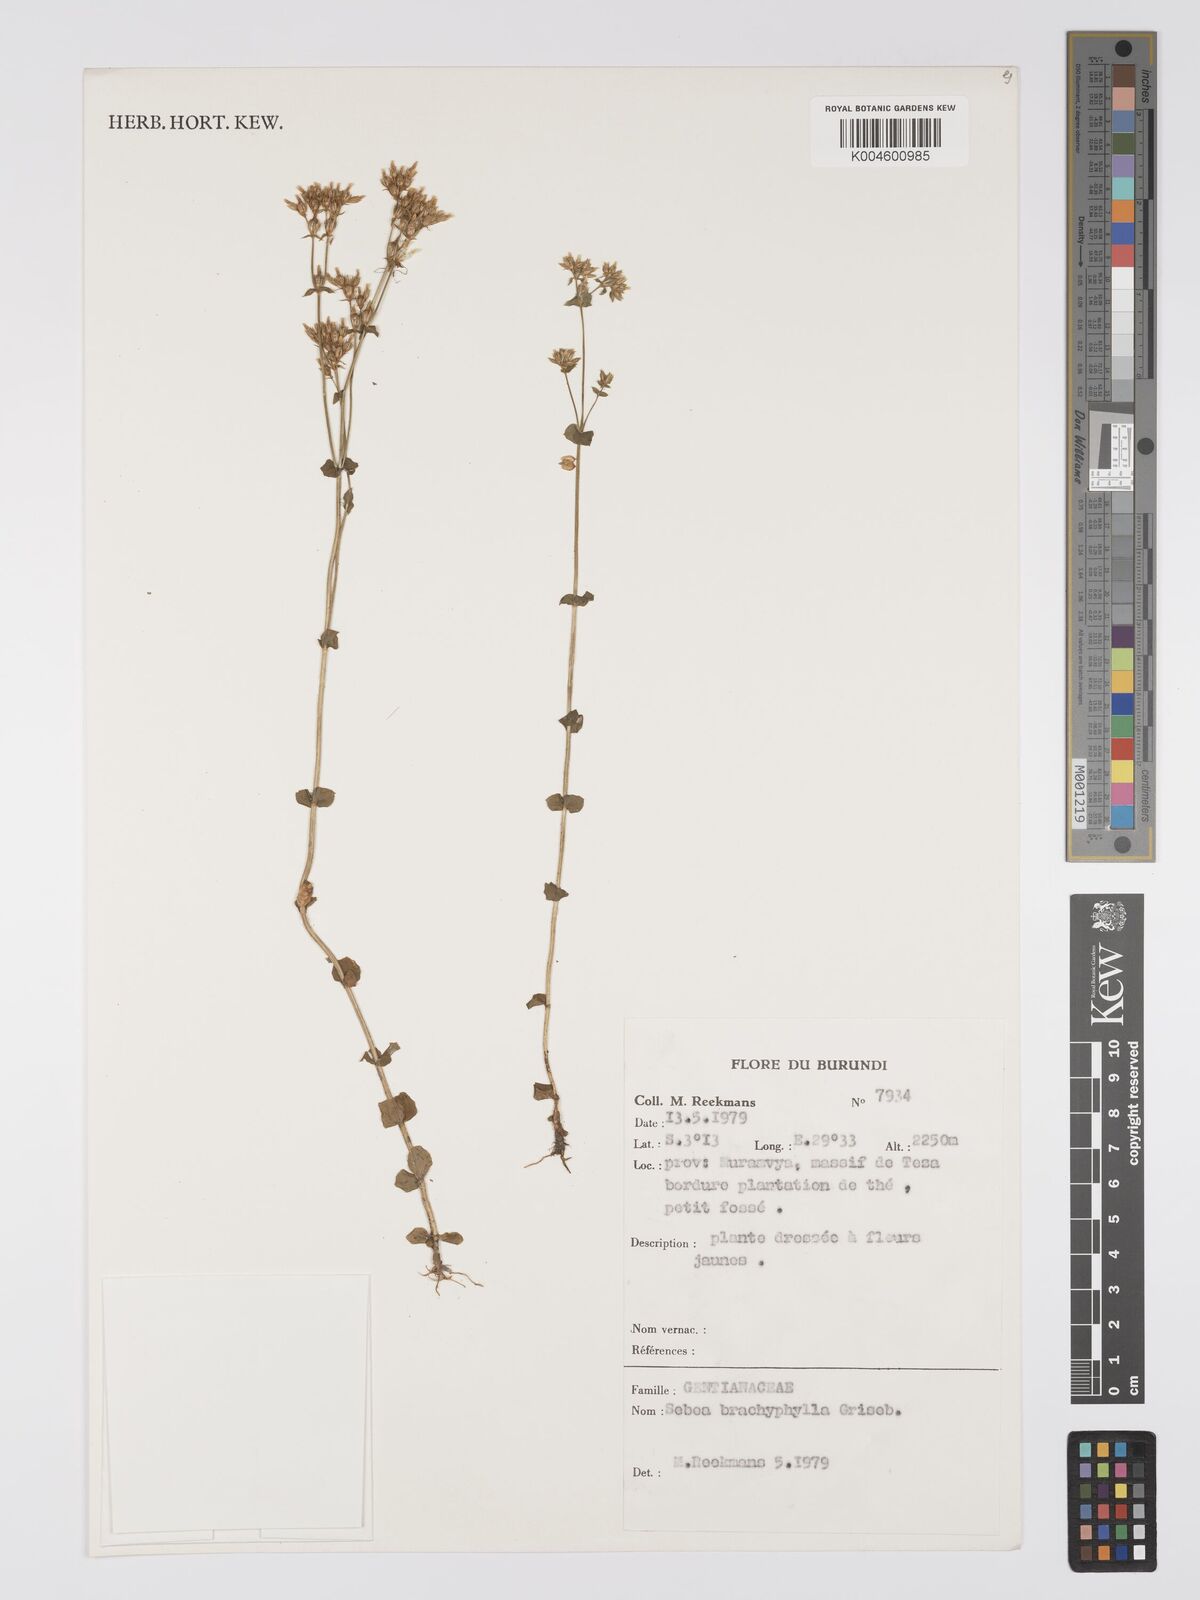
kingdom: Plantae
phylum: Tracheophyta
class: Magnoliopsida
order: Gentianales
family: Gentianaceae
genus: Sebaea
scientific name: Sebaea brachyphylla
